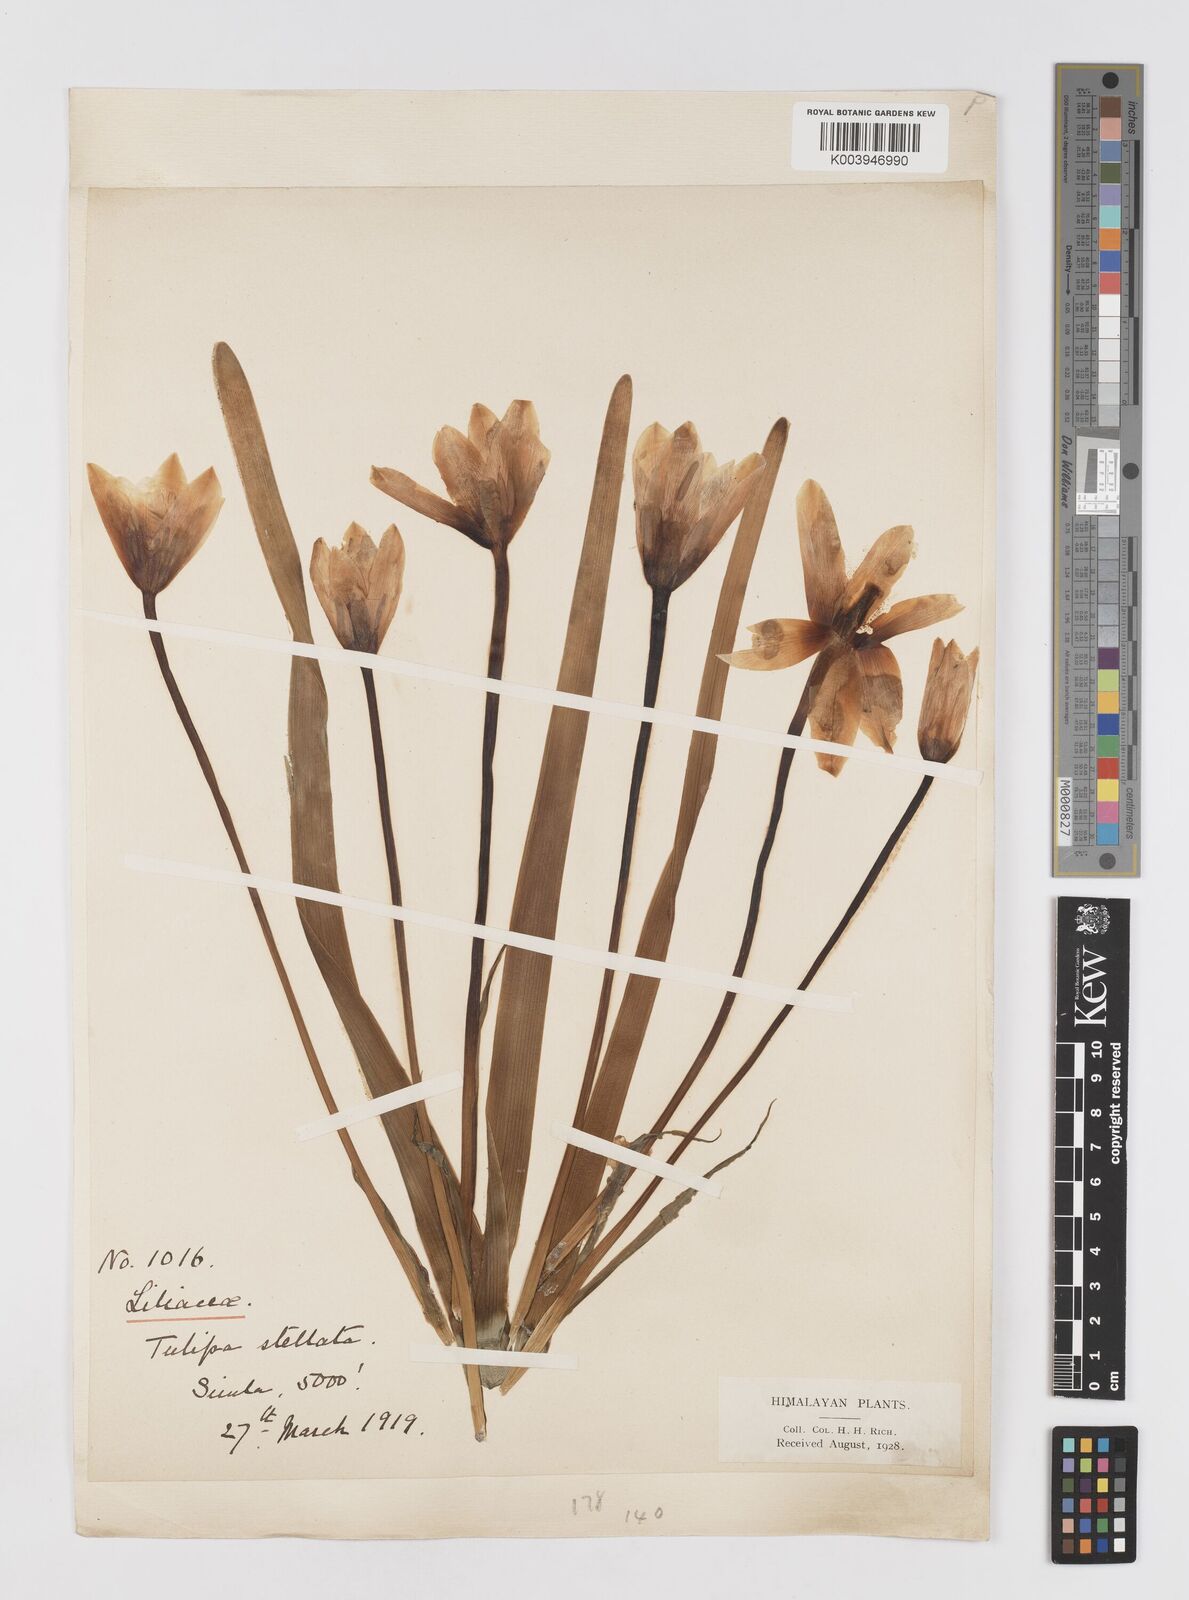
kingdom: Plantae
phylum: Tracheophyta
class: Liliopsida
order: Liliales
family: Liliaceae
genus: Tulipa
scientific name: Tulipa clusiana
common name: Lady tulip
